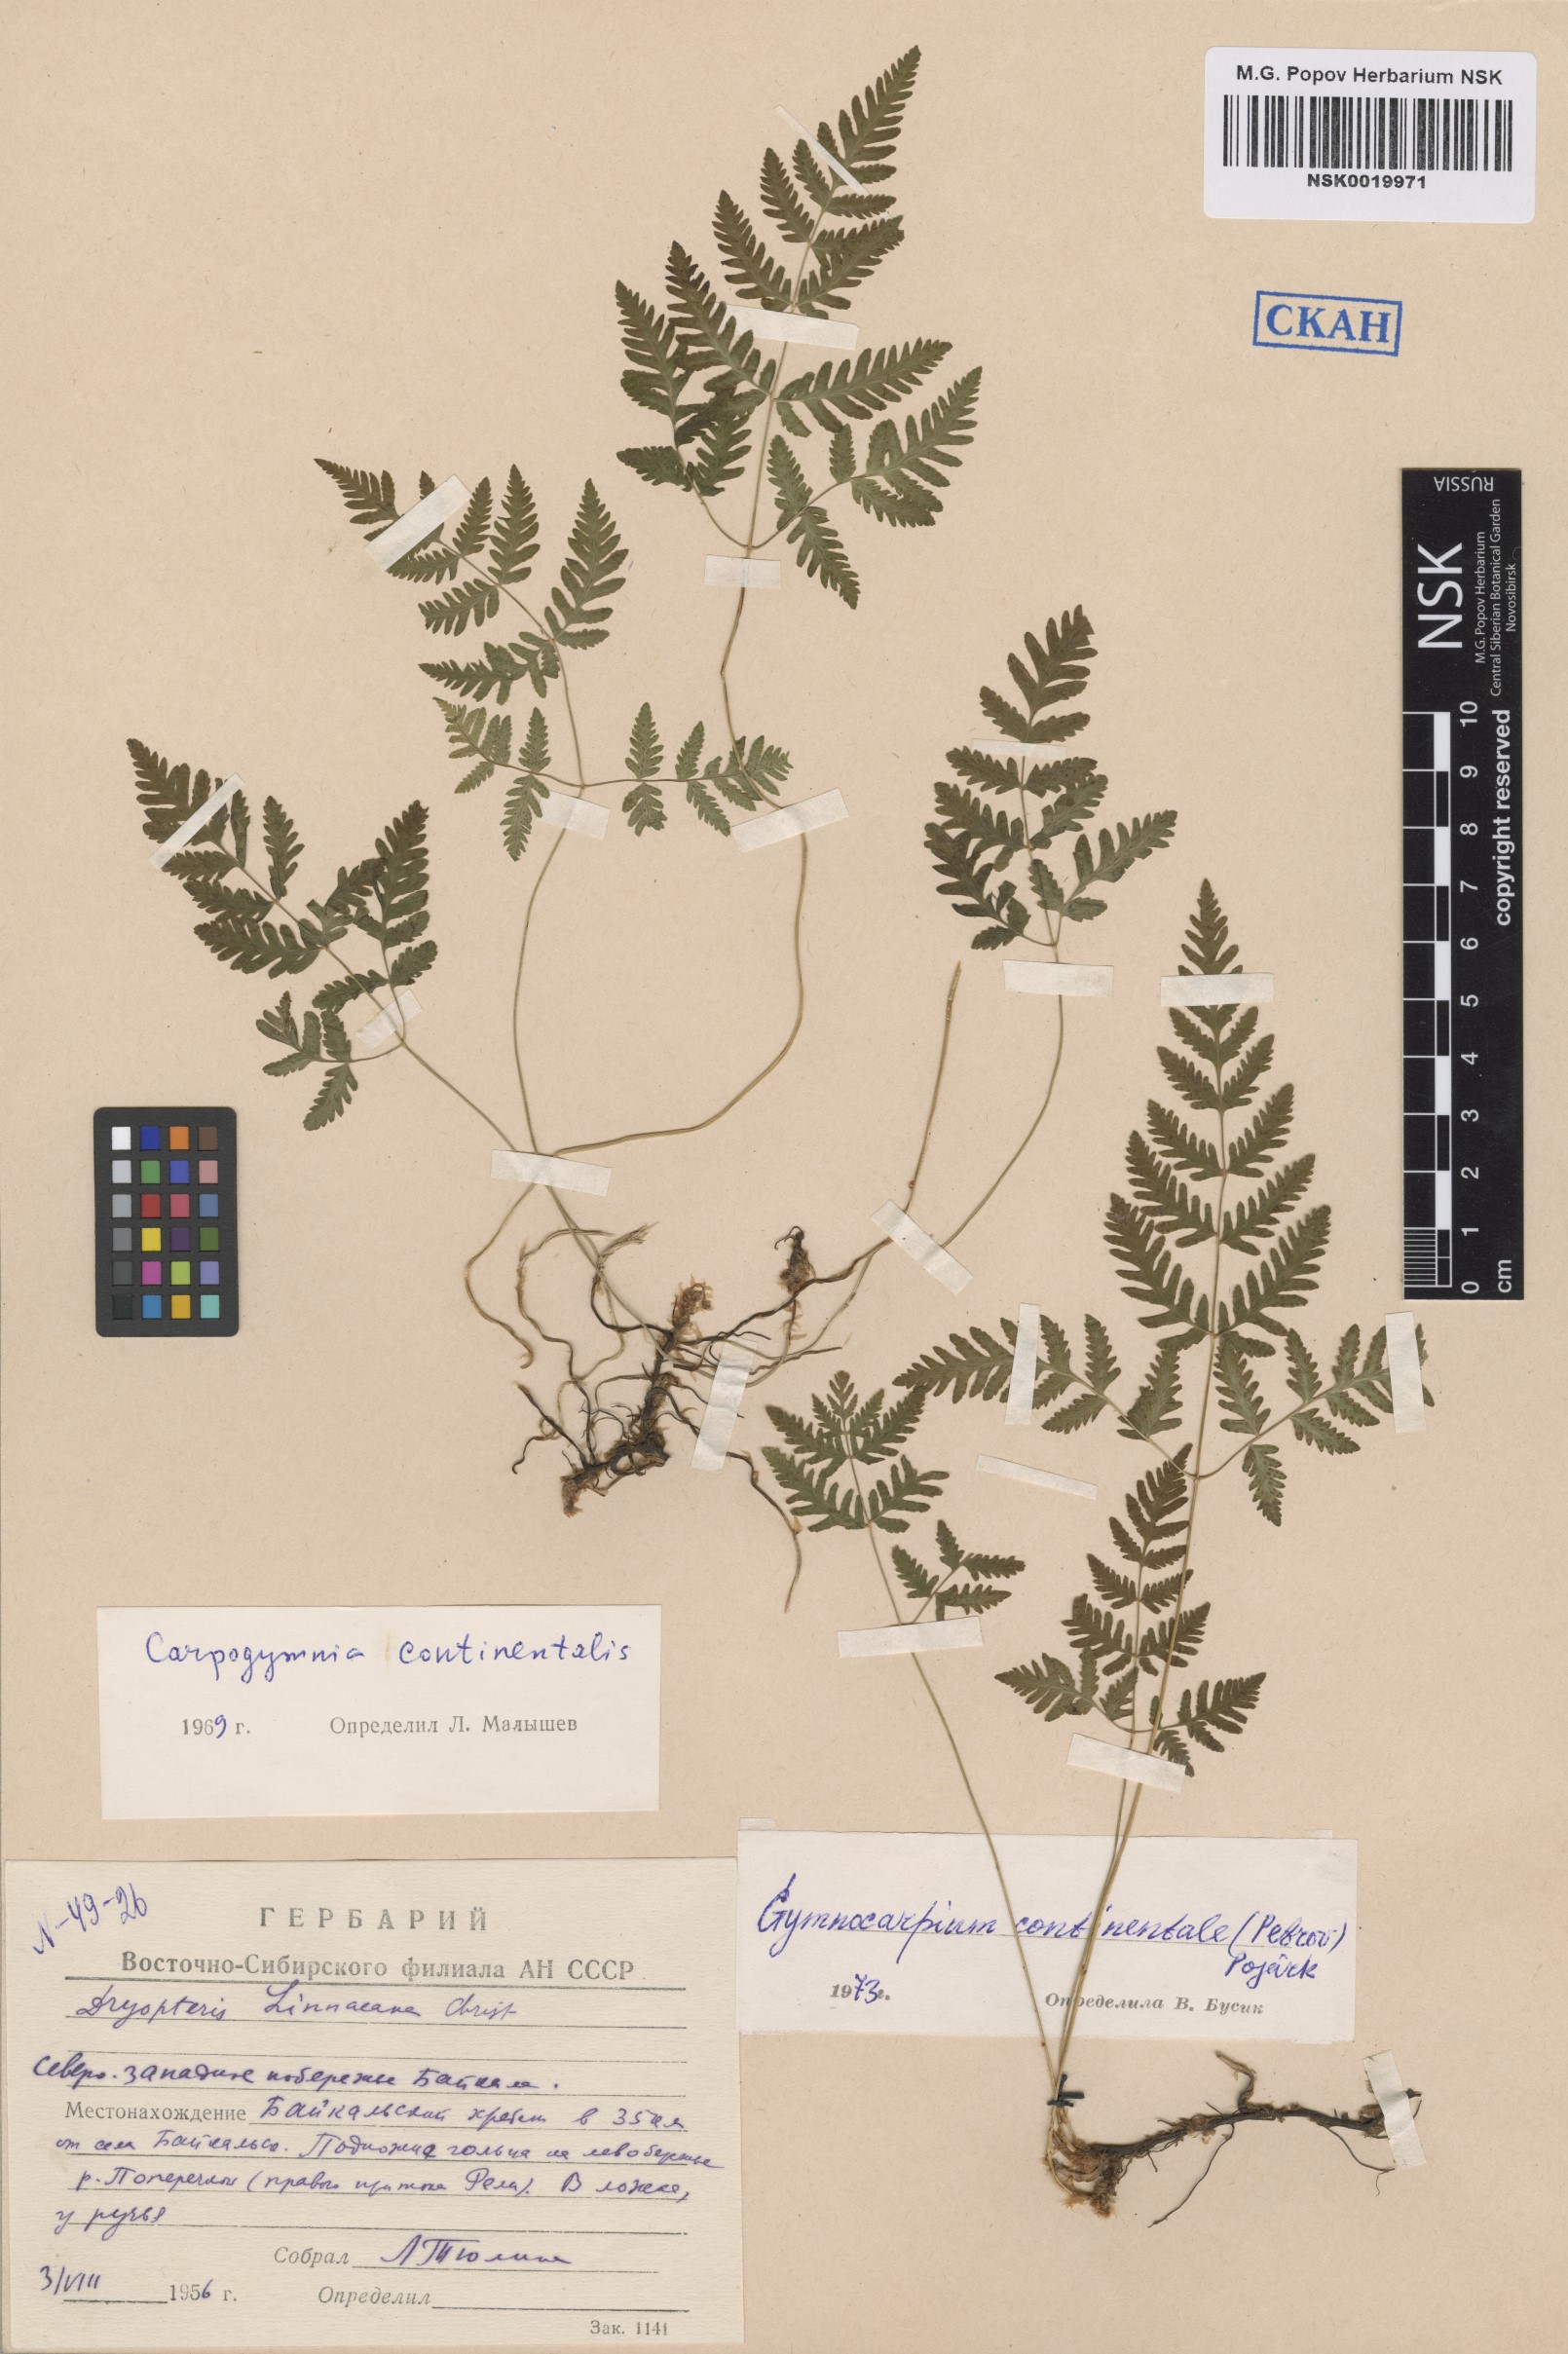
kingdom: Plantae
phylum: Tracheophyta
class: Polypodiopsida
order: Polypodiales
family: Cystopteridaceae
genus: Gymnocarpium
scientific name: Gymnocarpium continentale
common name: Asian oak fern
